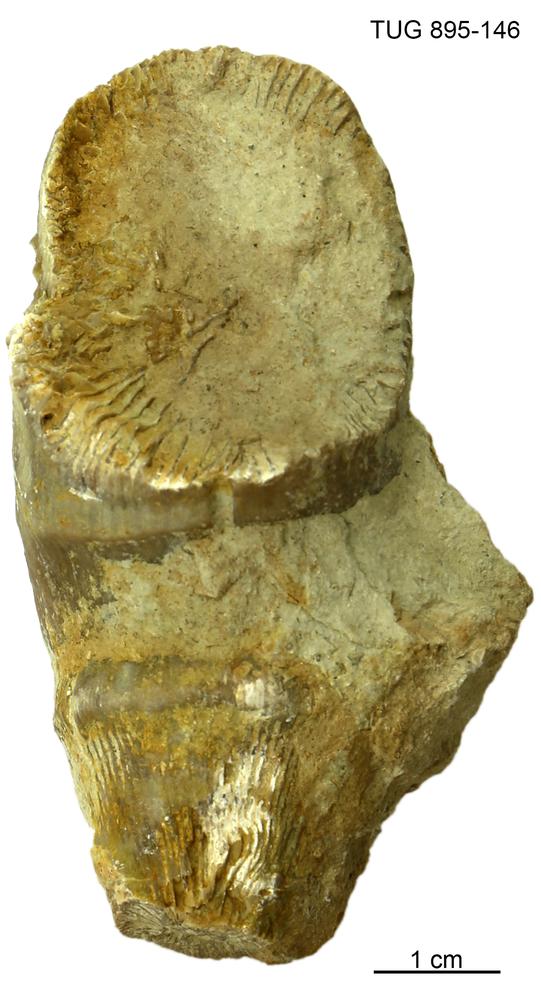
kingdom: Animalia
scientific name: Animalia
